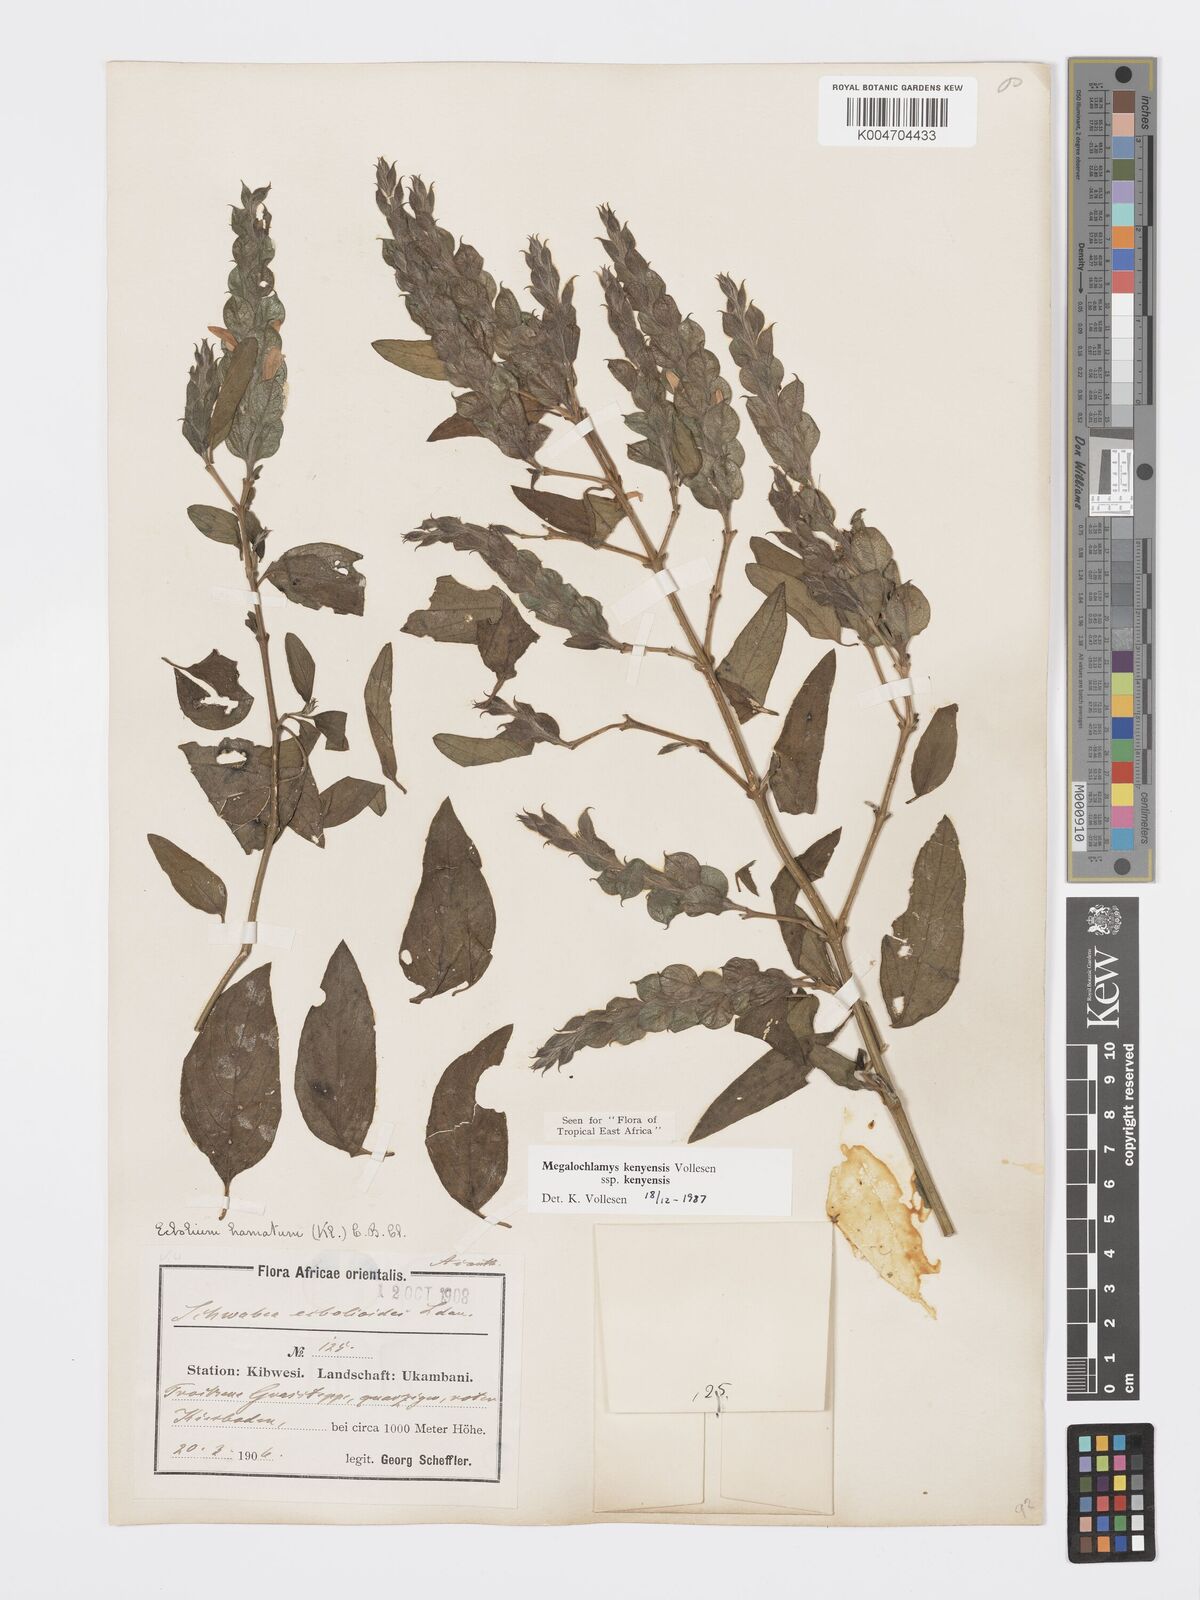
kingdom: Plantae
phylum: Tracheophyta
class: Magnoliopsida
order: Lamiales
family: Acanthaceae
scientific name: Acanthaceae
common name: Acanthaceae
